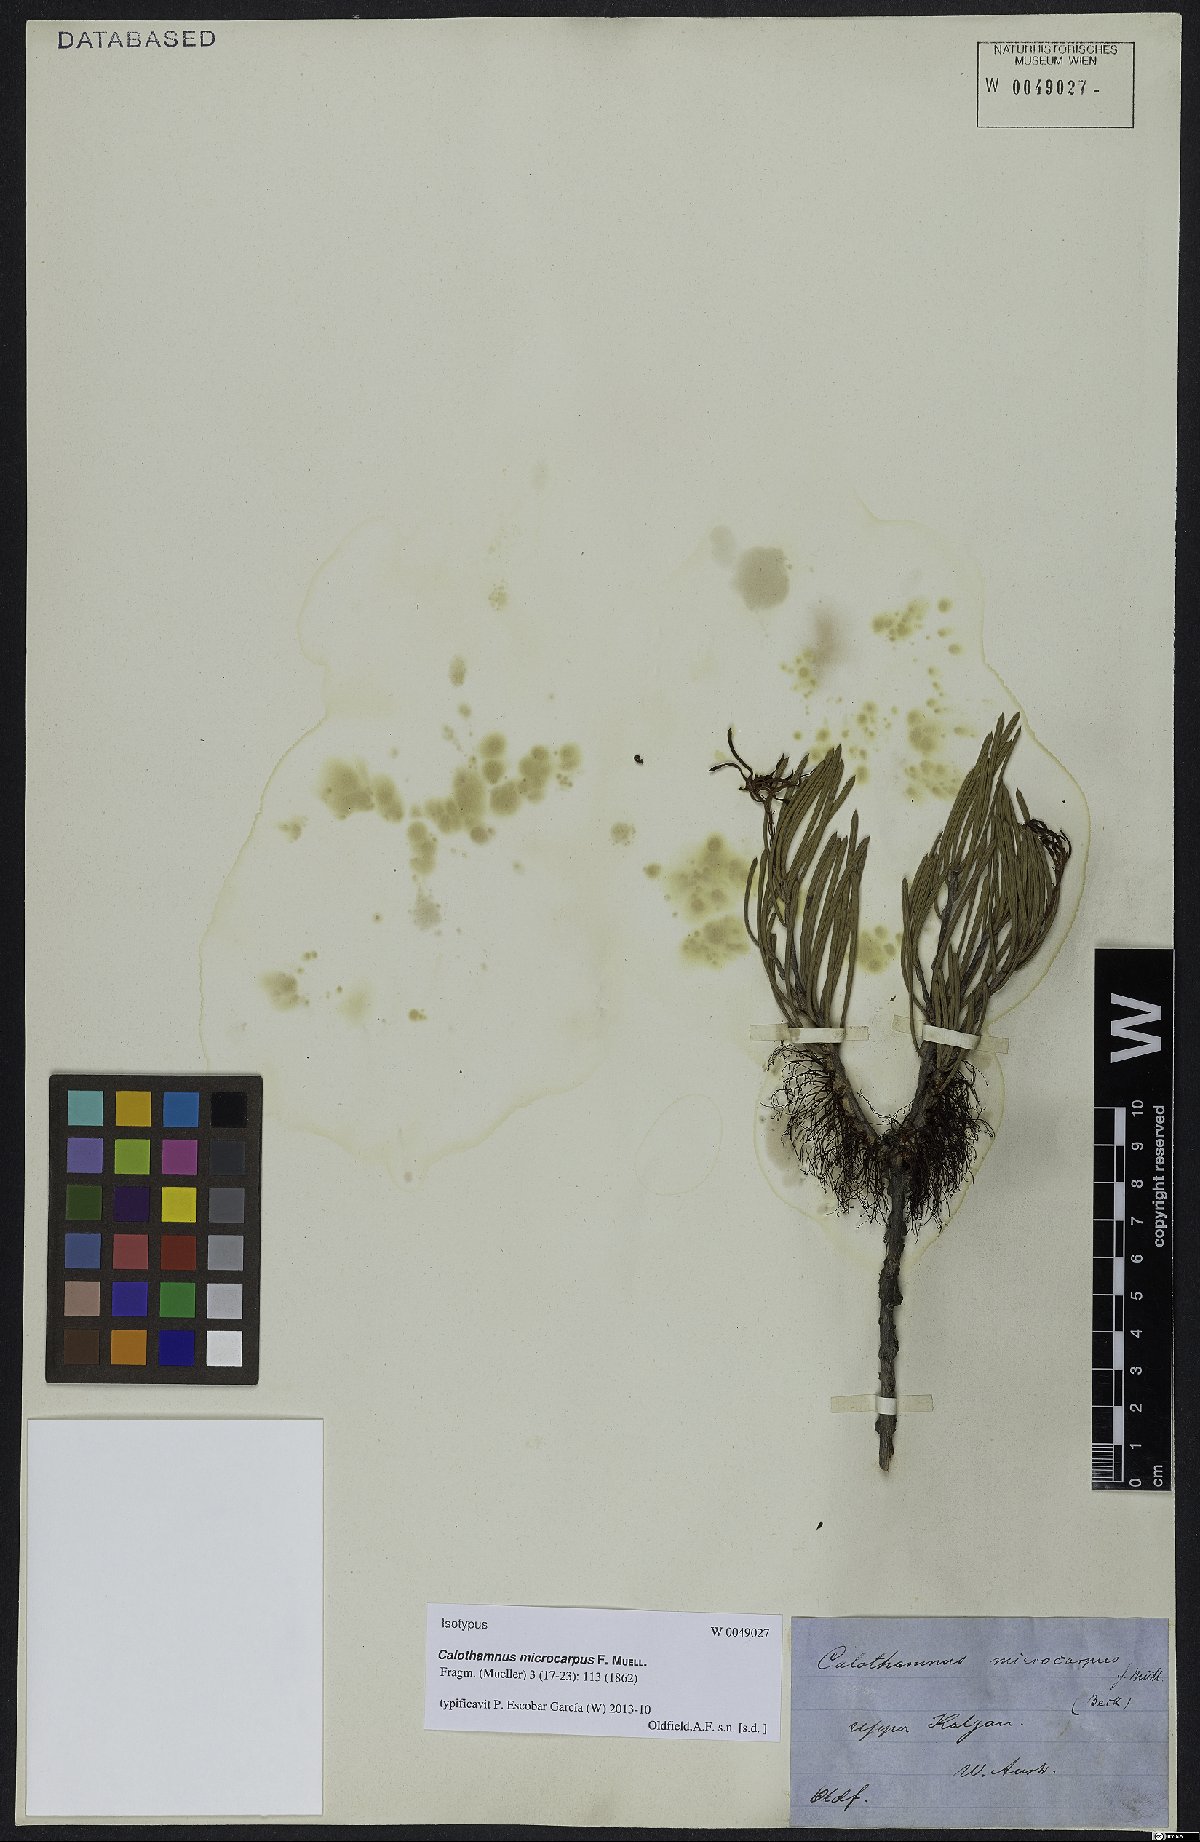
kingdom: Plantae
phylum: Tracheophyta
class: Magnoliopsida
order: Myrtales
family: Myrtaceae
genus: Melaleuca
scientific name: Melaleuca microcarpa
